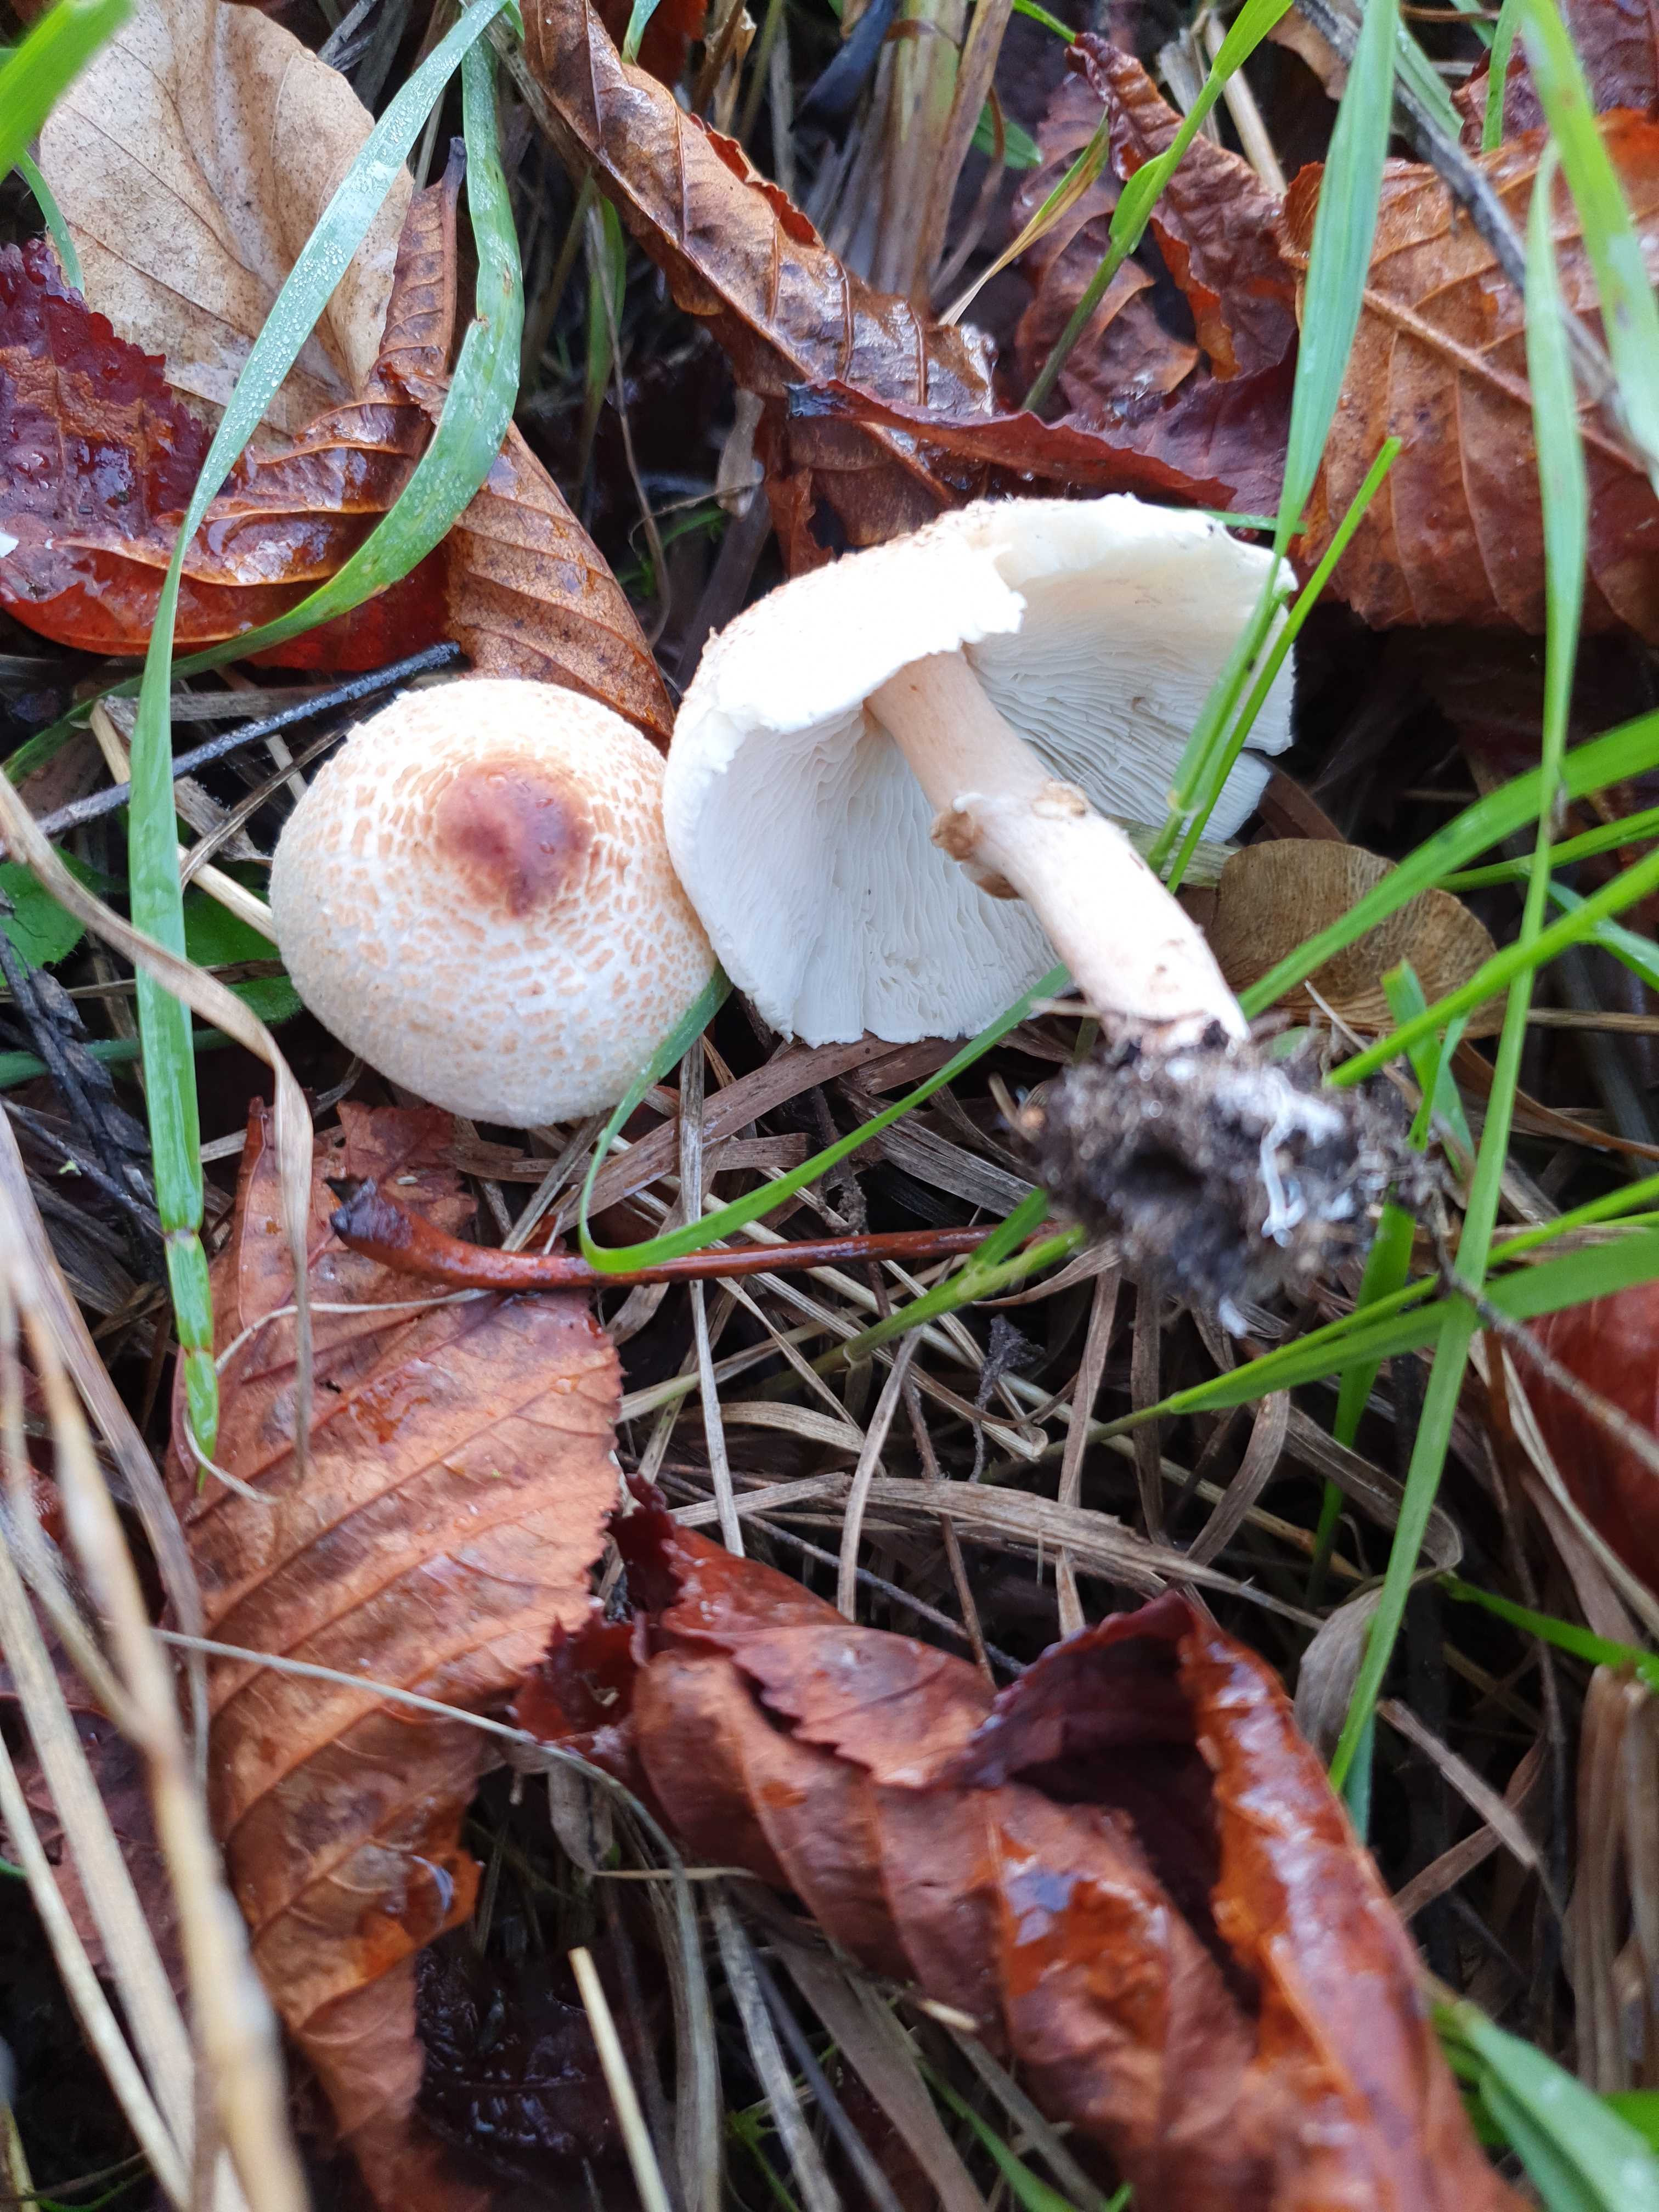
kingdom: Fungi
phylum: Basidiomycota
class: Agaricomycetes
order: Agaricales
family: Agaricaceae
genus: Lepiota
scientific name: Lepiota cristata
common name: stinkende parasolhat
